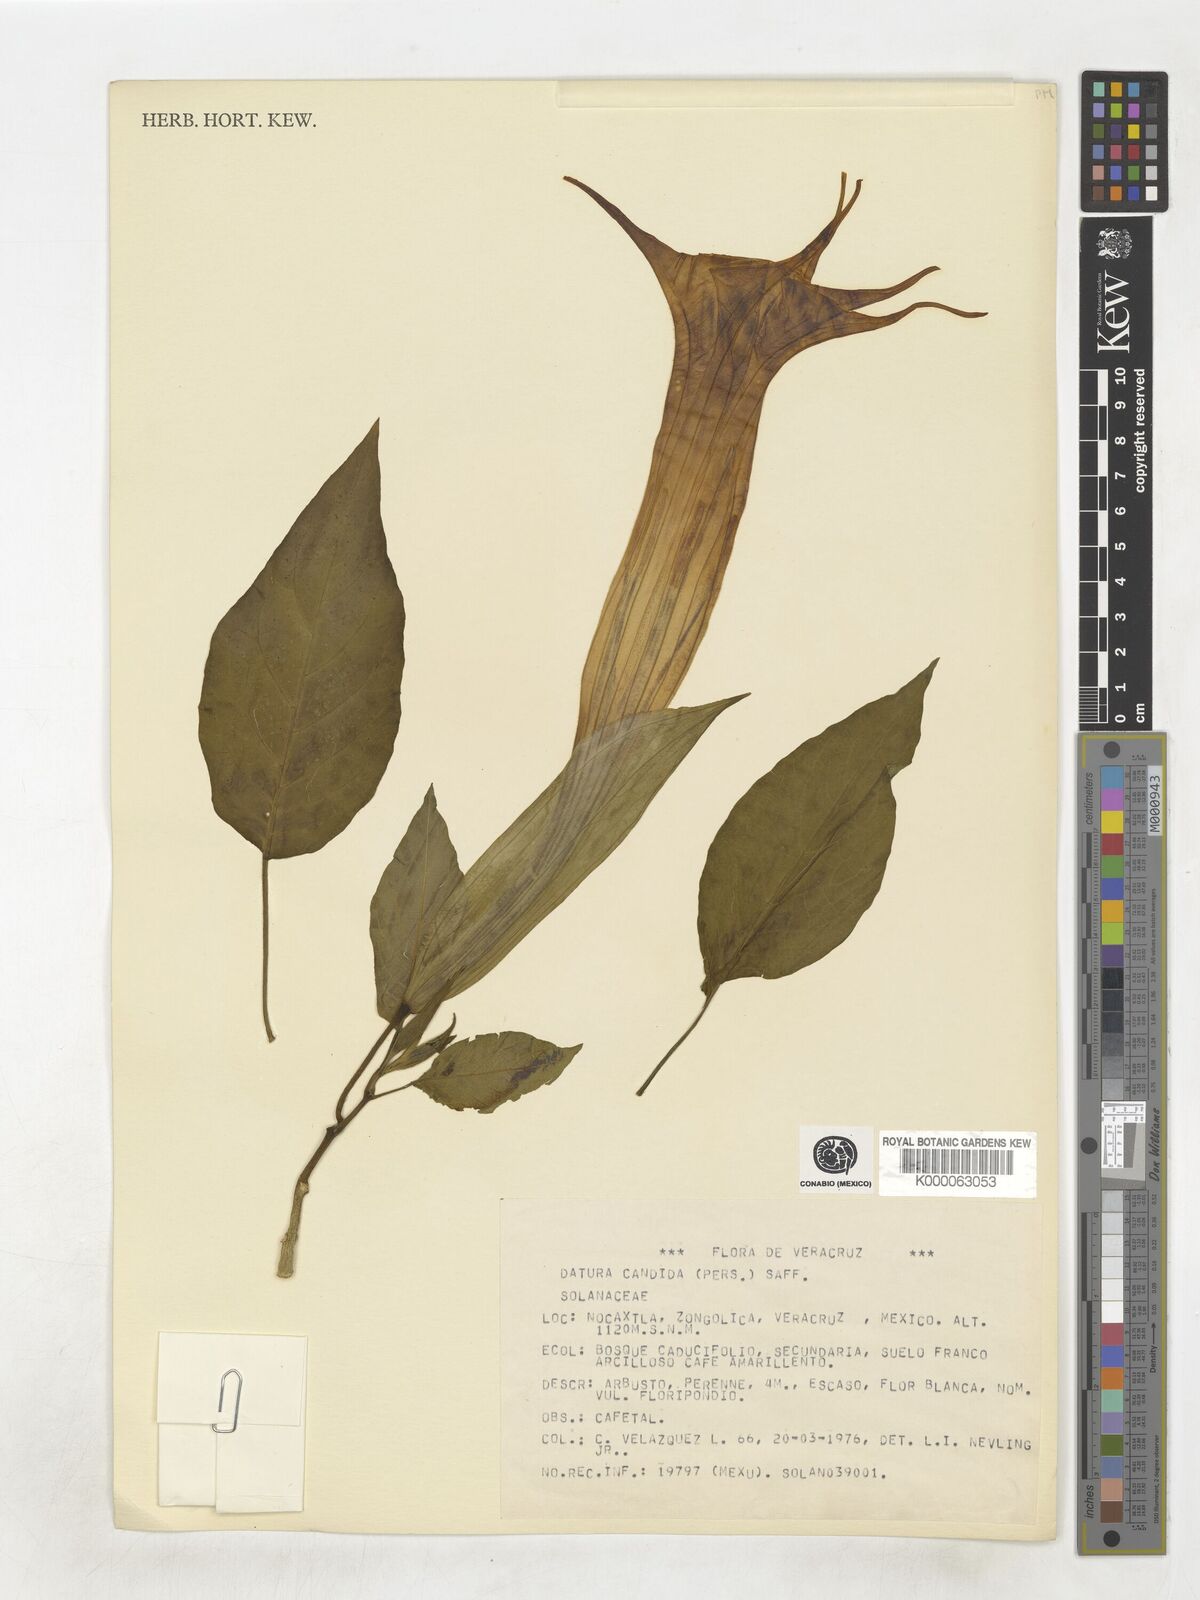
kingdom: Plantae
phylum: Tracheophyta
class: Magnoliopsida
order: Solanales
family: Solanaceae
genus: Datura
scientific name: Datura candida
